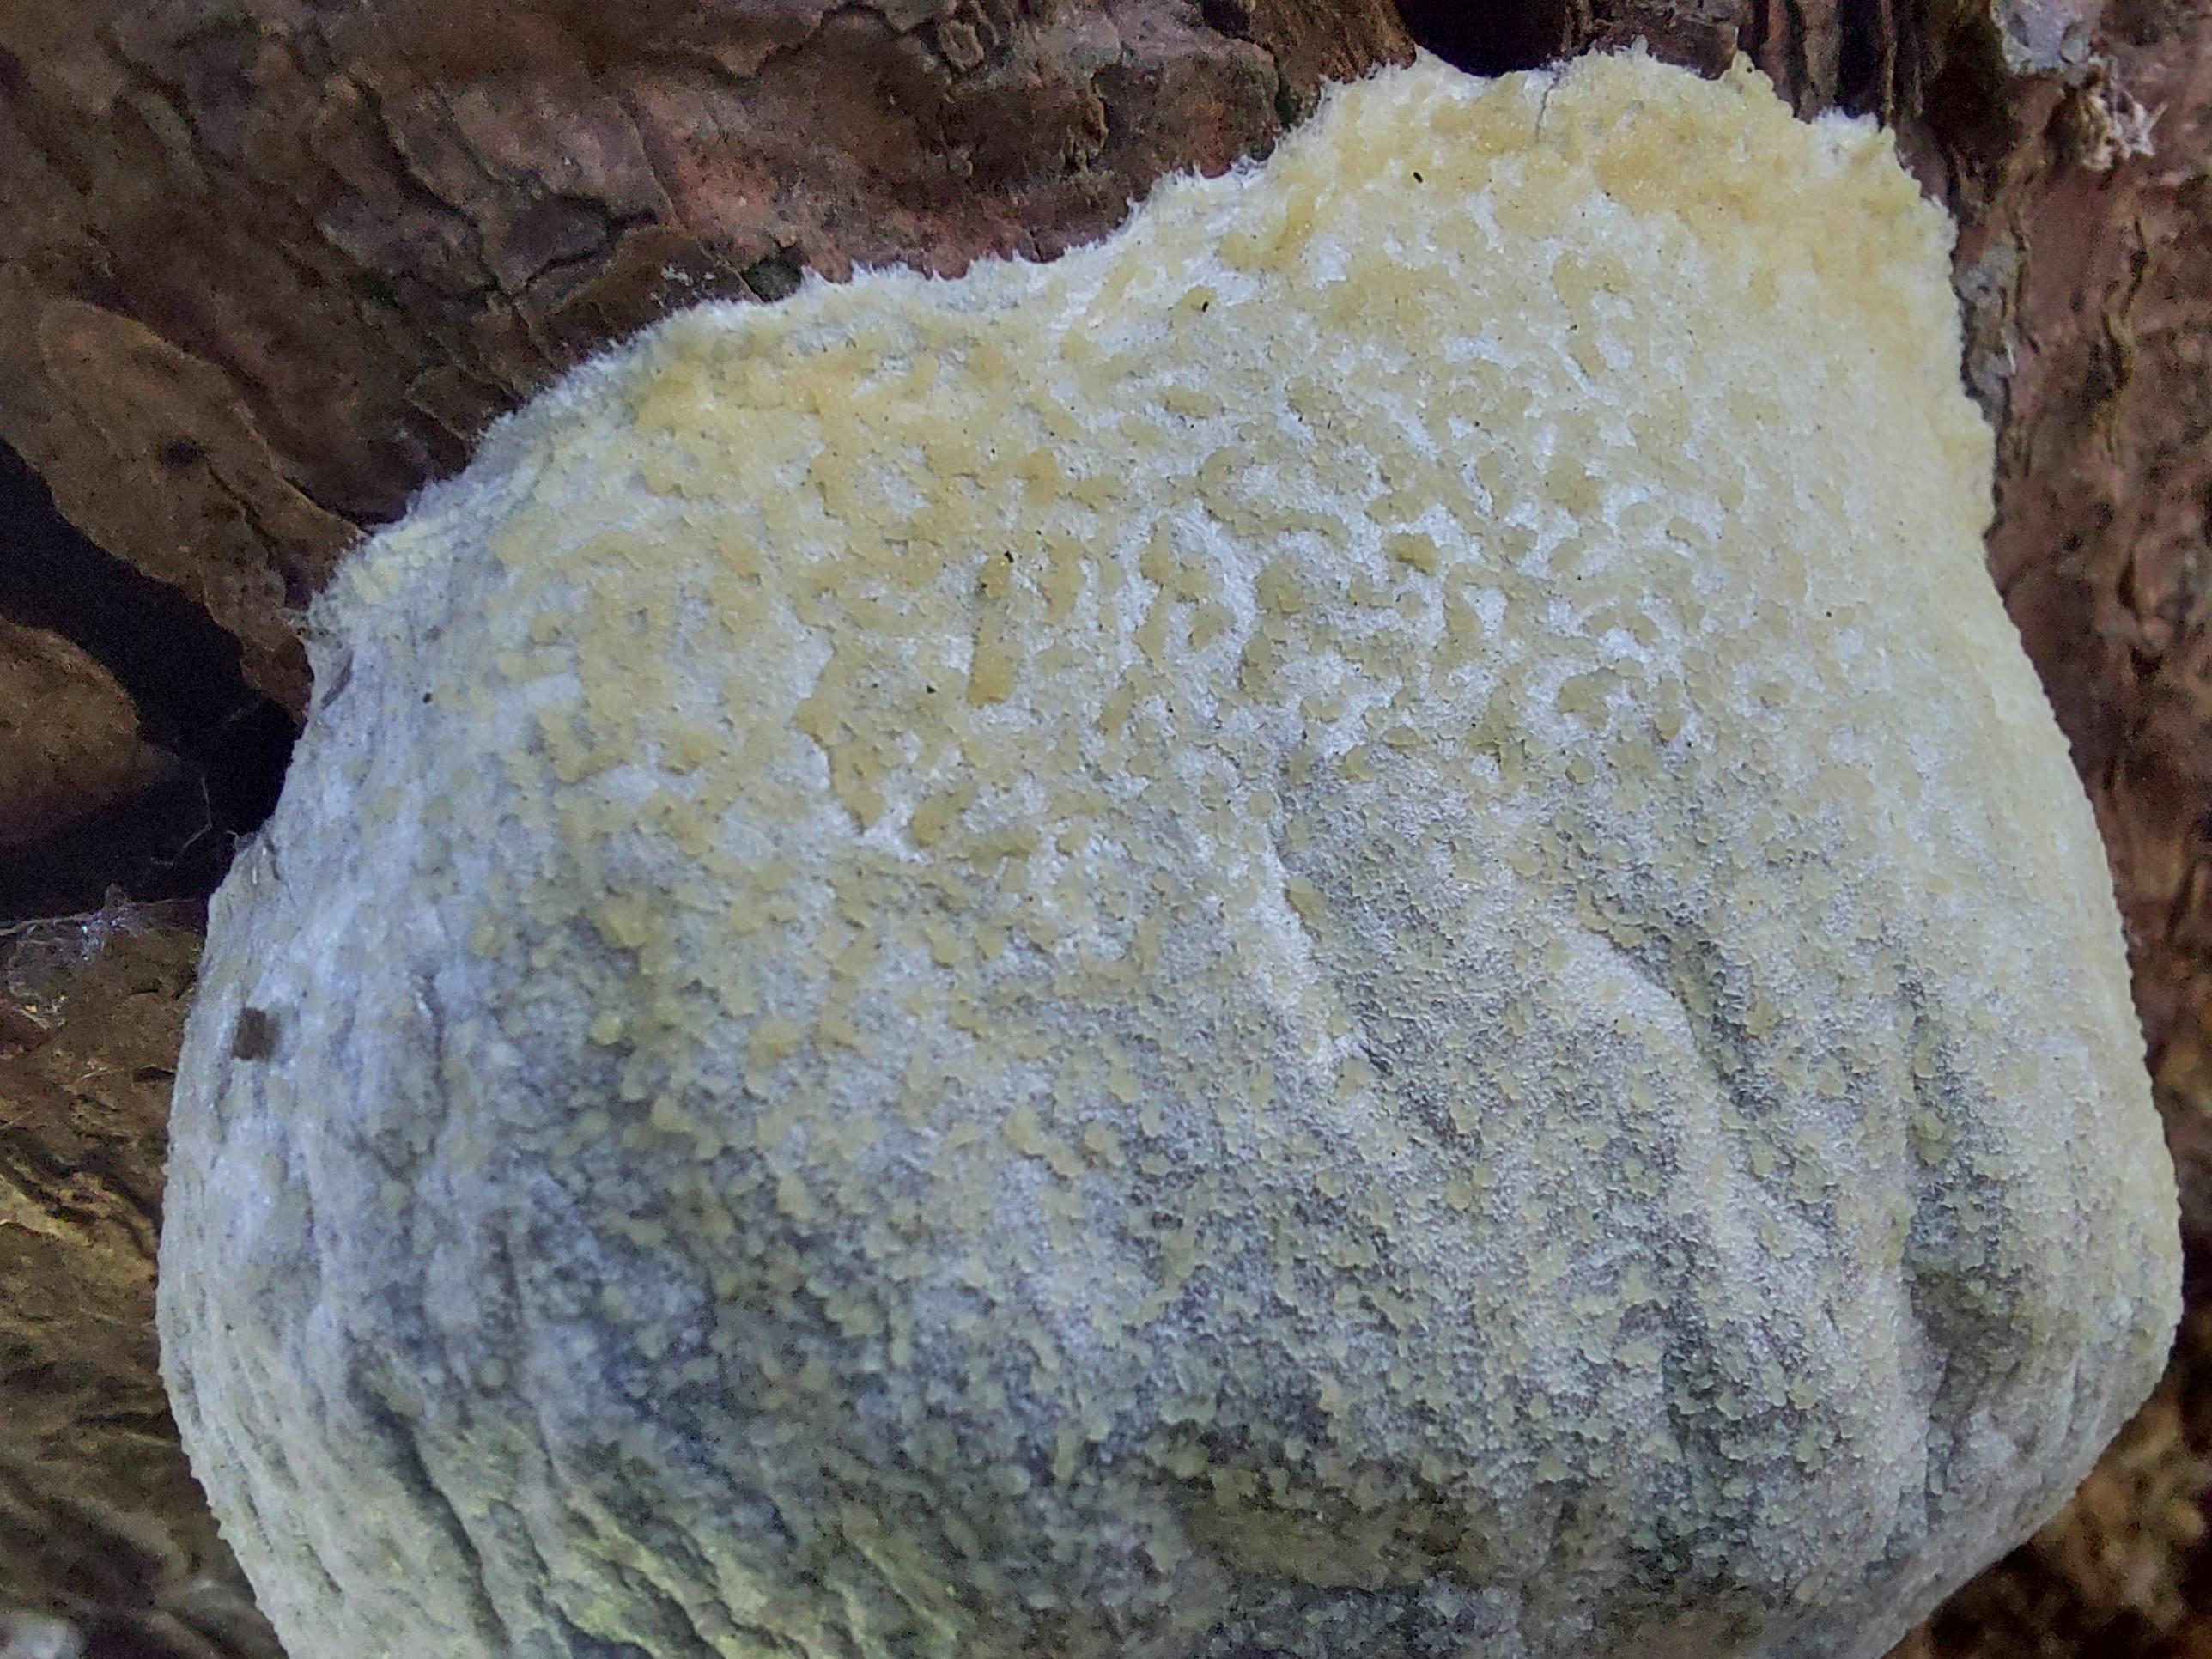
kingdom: Protozoa
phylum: Mycetozoa
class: Myxomycetes
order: Cribrariales
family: Tubiferaceae
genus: Reticularia
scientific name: Reticularia lycoperdon
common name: skinnende støvpude
